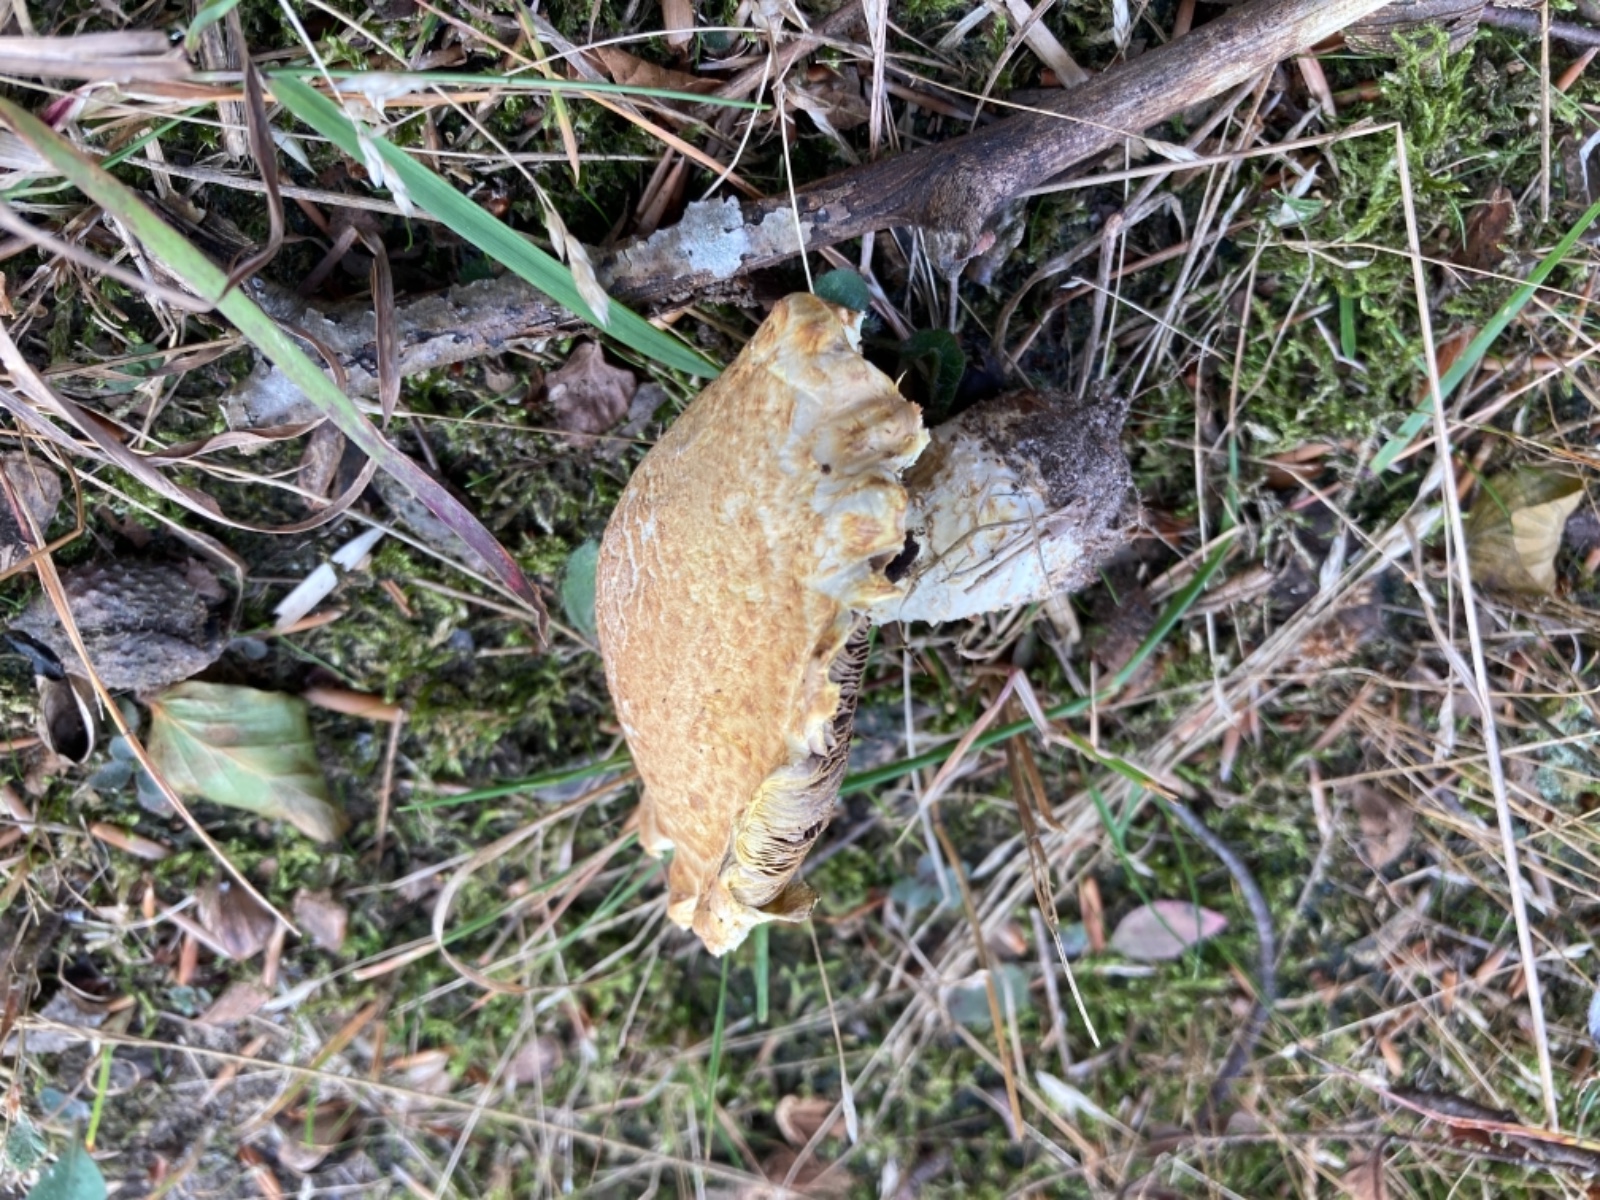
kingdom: Fungi
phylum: Basidiomycota
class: Agaricomycetes
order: Agaricales
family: Agaricaceae
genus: Agaricus
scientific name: Agaricus
